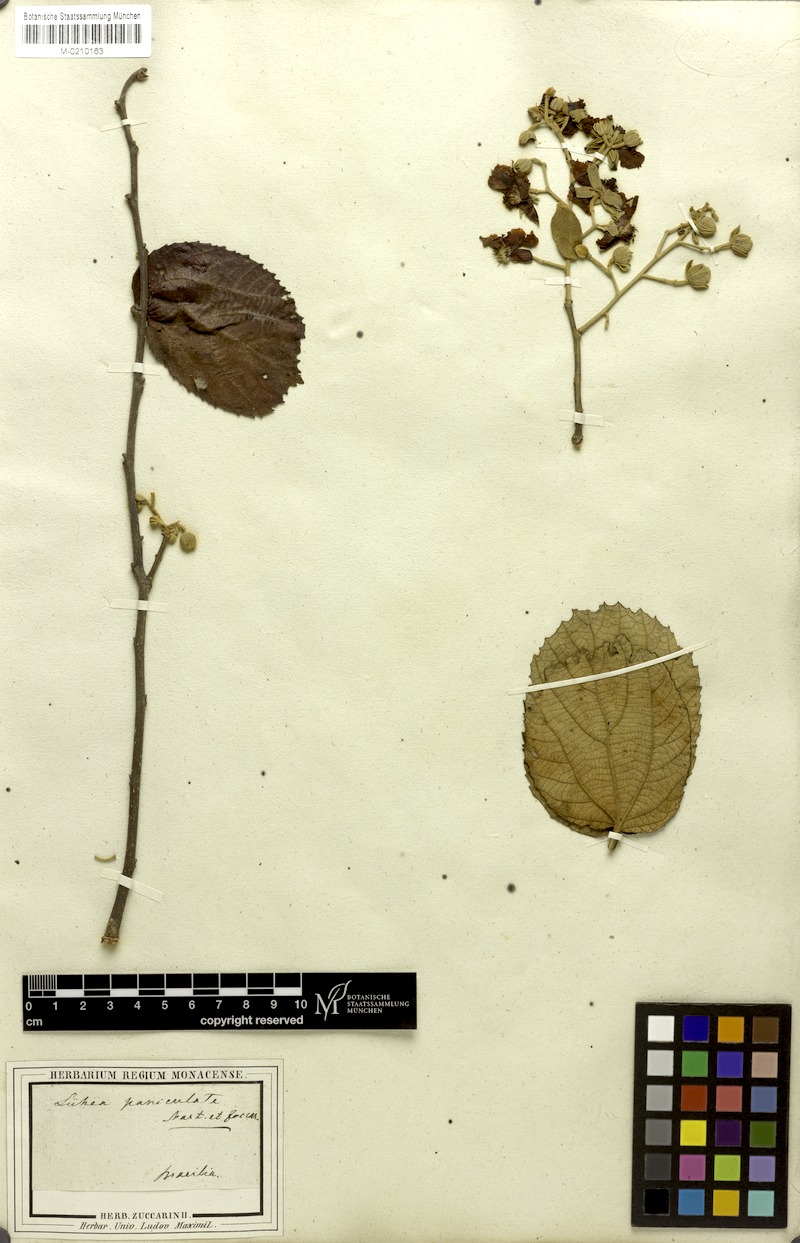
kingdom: Plantae
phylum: Tracheophyta
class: Magnoliopsida
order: Malvales
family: Malvaceae
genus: Luehea
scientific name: Luehea paniculata
